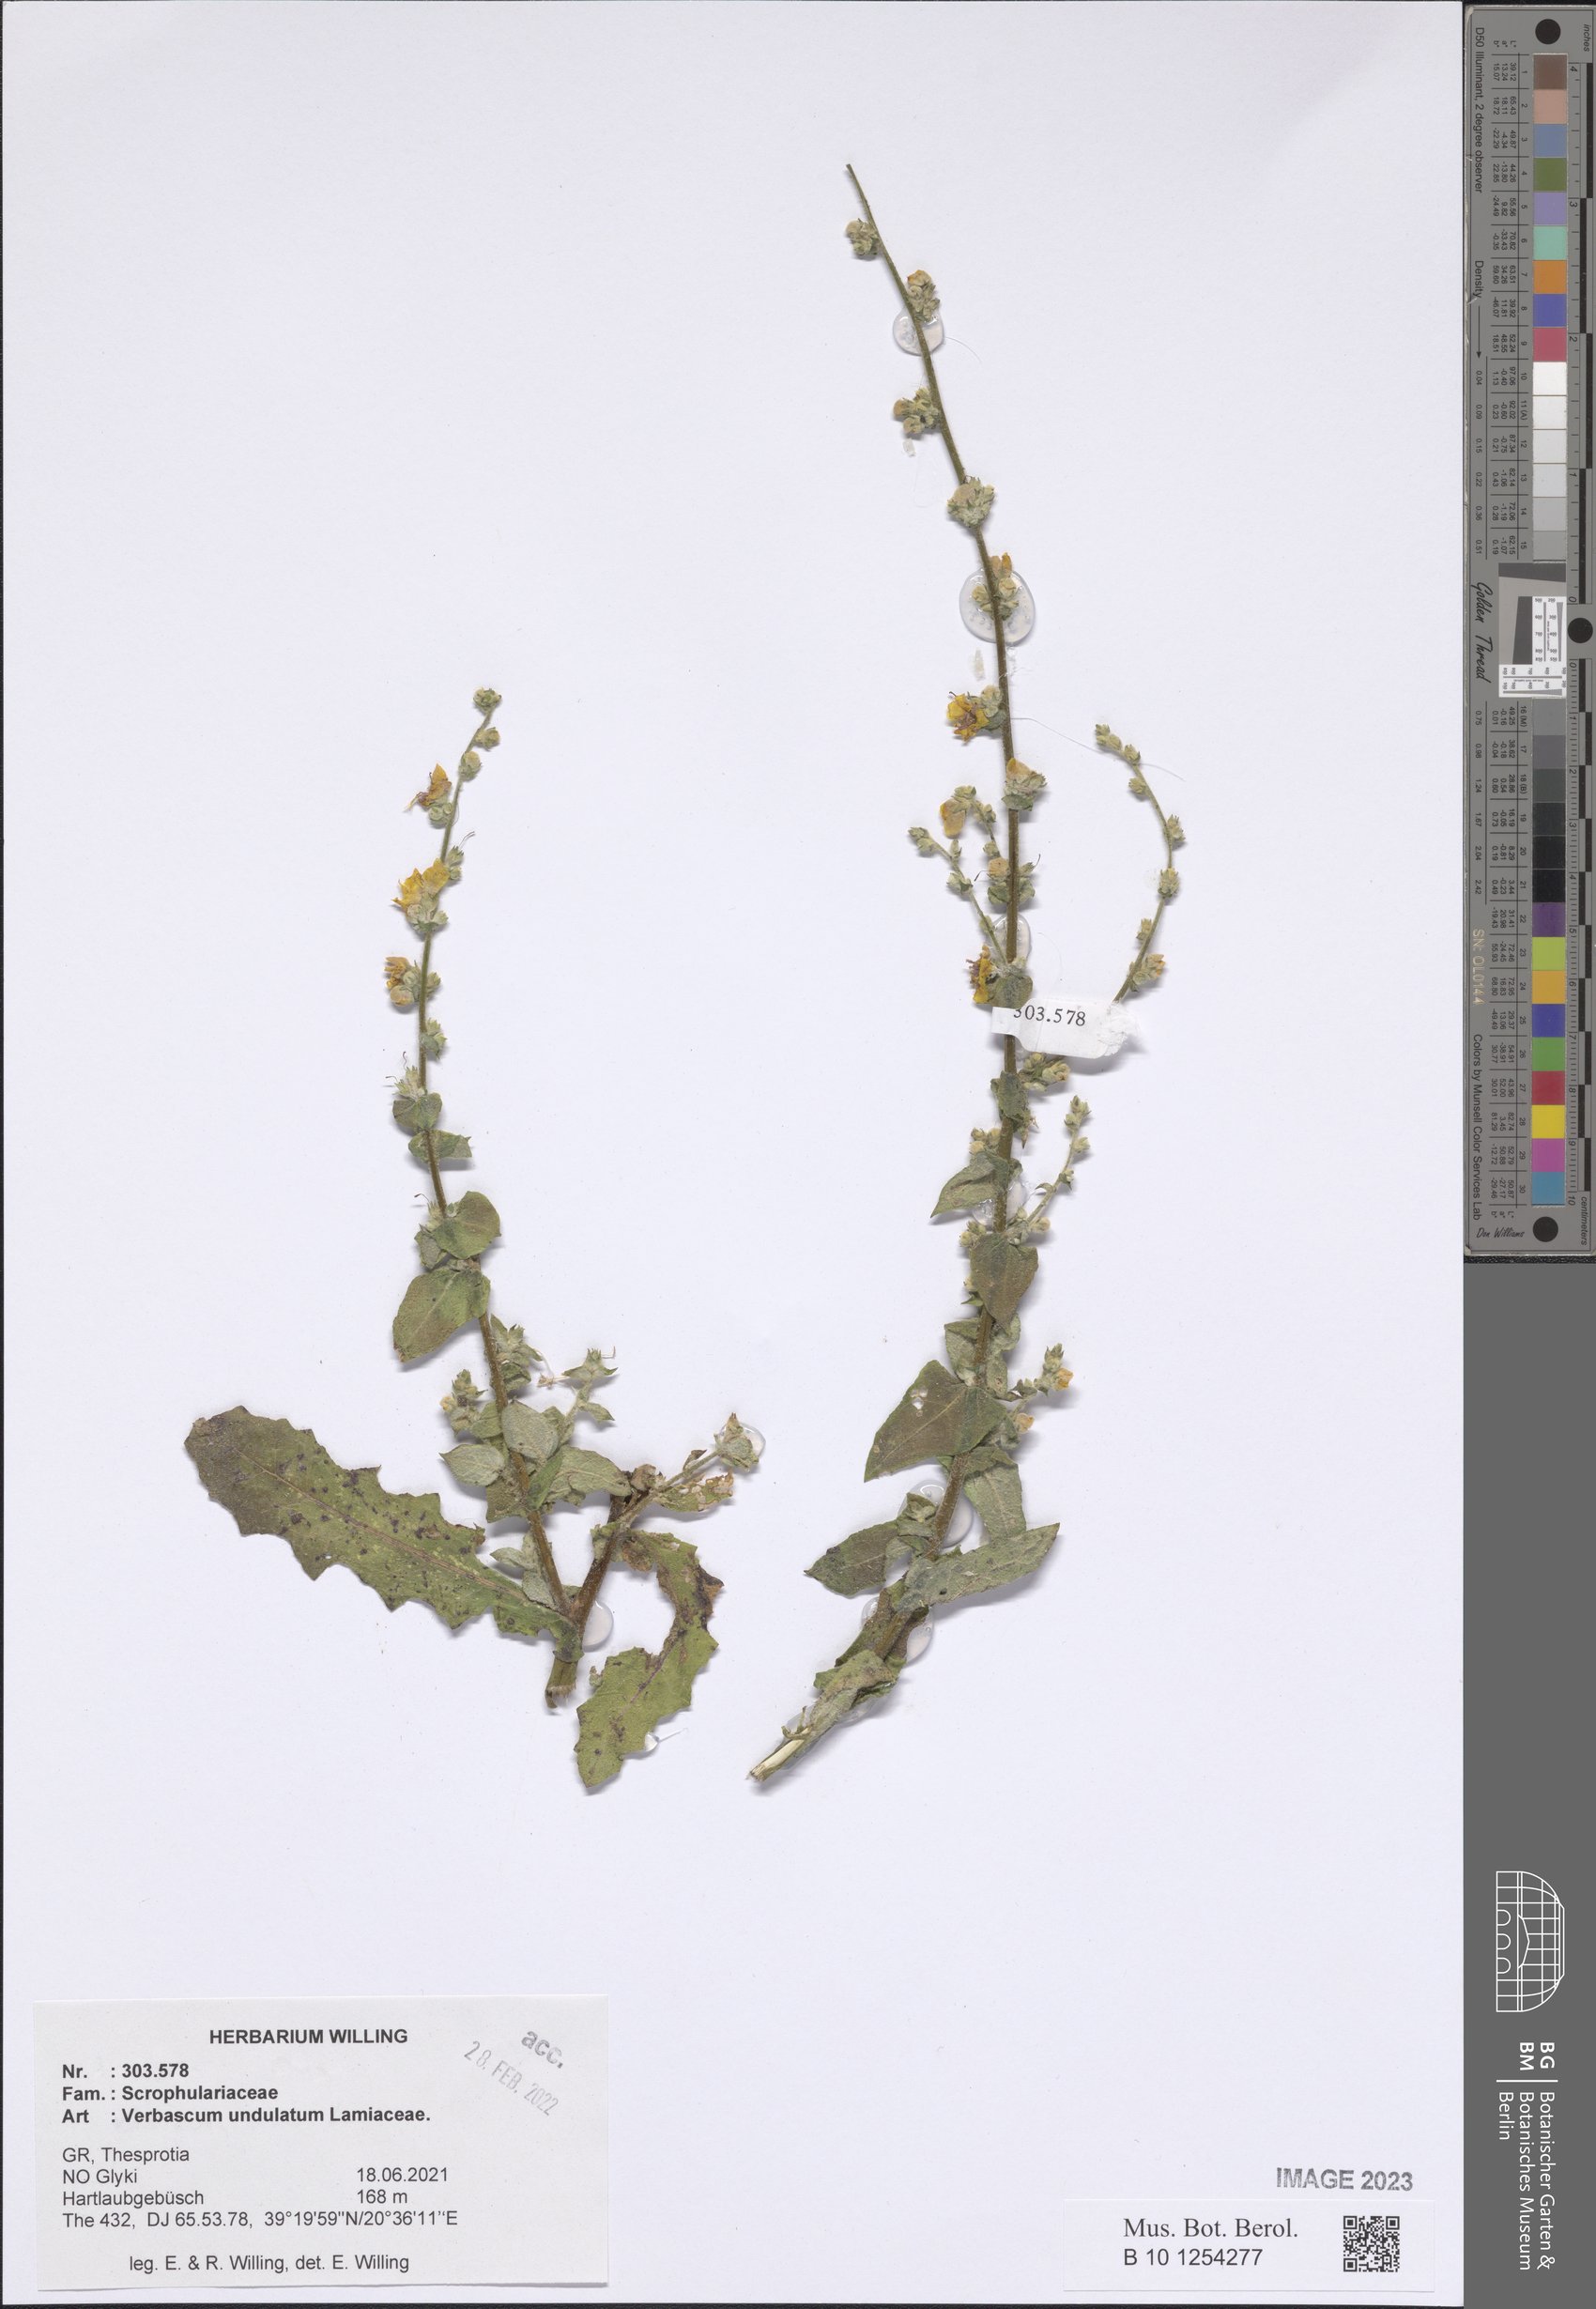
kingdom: Plantae
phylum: Tracheophyta
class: Magnoliopsida
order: Lamiales
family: Scrophulariaceae
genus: Verbascum
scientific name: Verbascum undulatum
